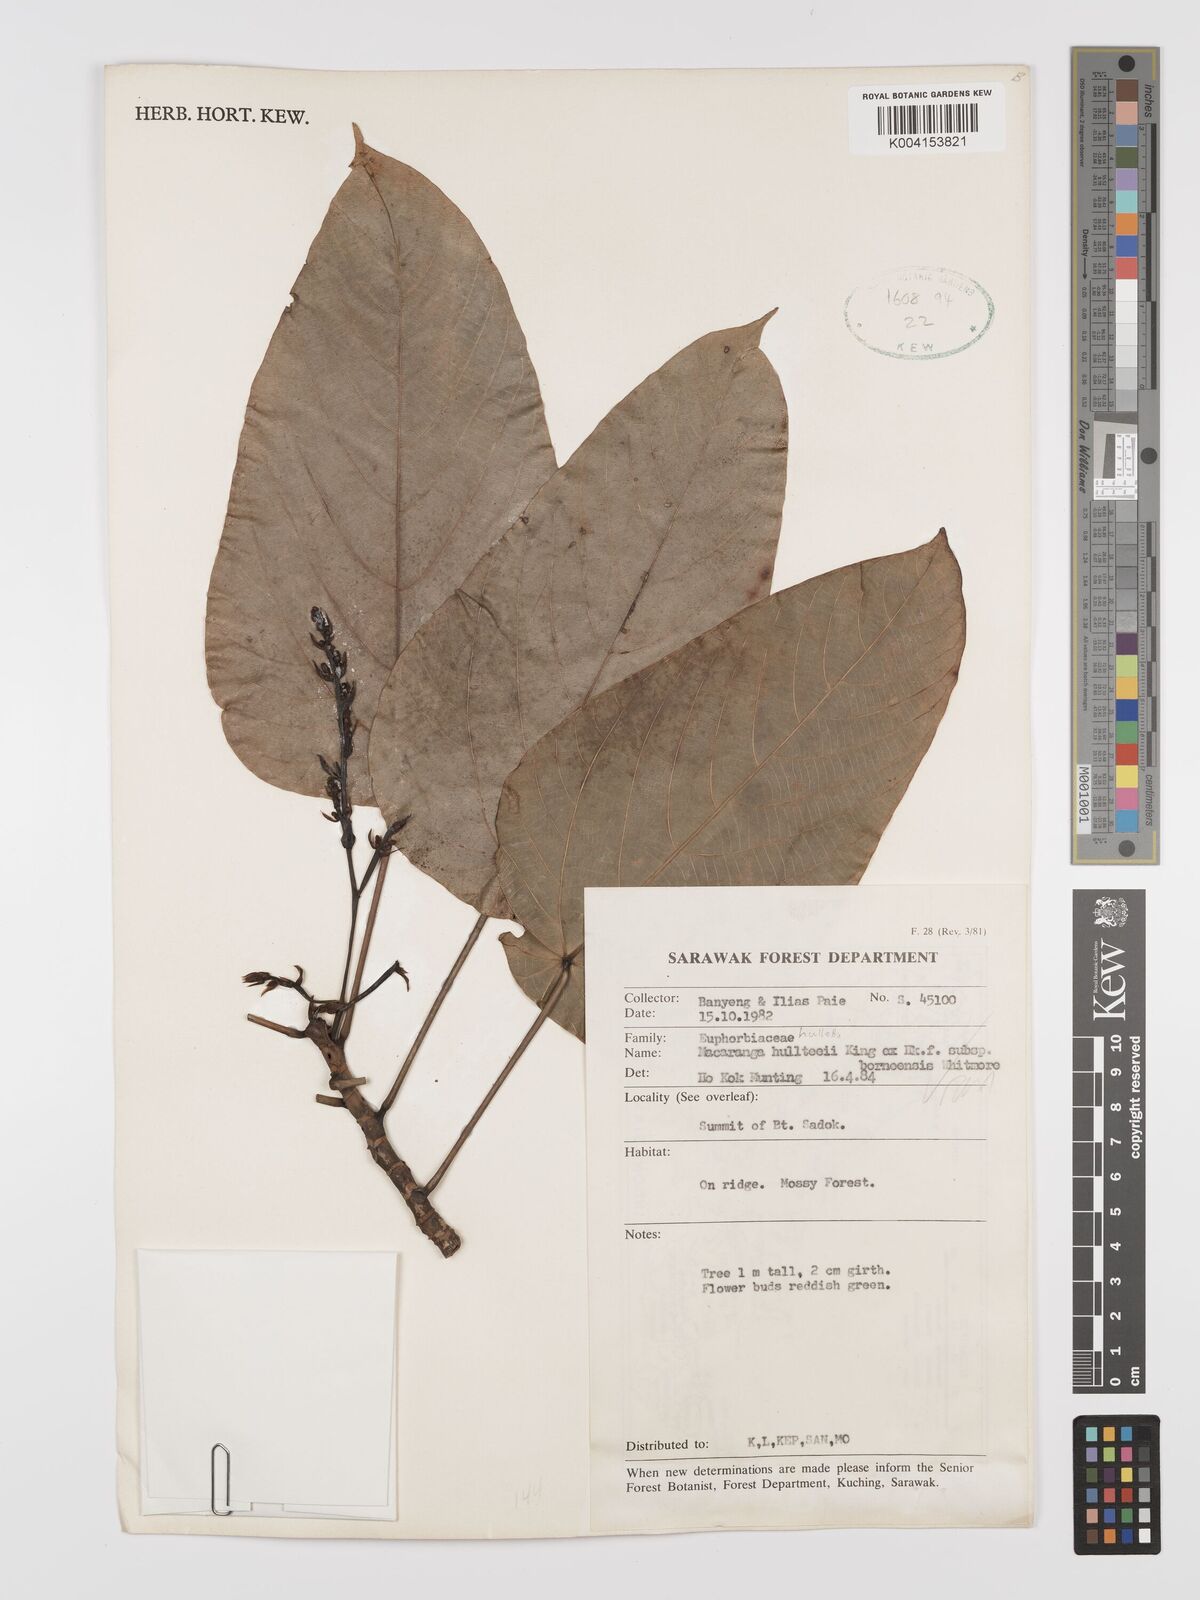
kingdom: Plantae
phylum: Tracheophyta
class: Magnoliopsida
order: Malpighiales
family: Euphorbiaceae
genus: Macaranga
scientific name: Macaranga hullettii
